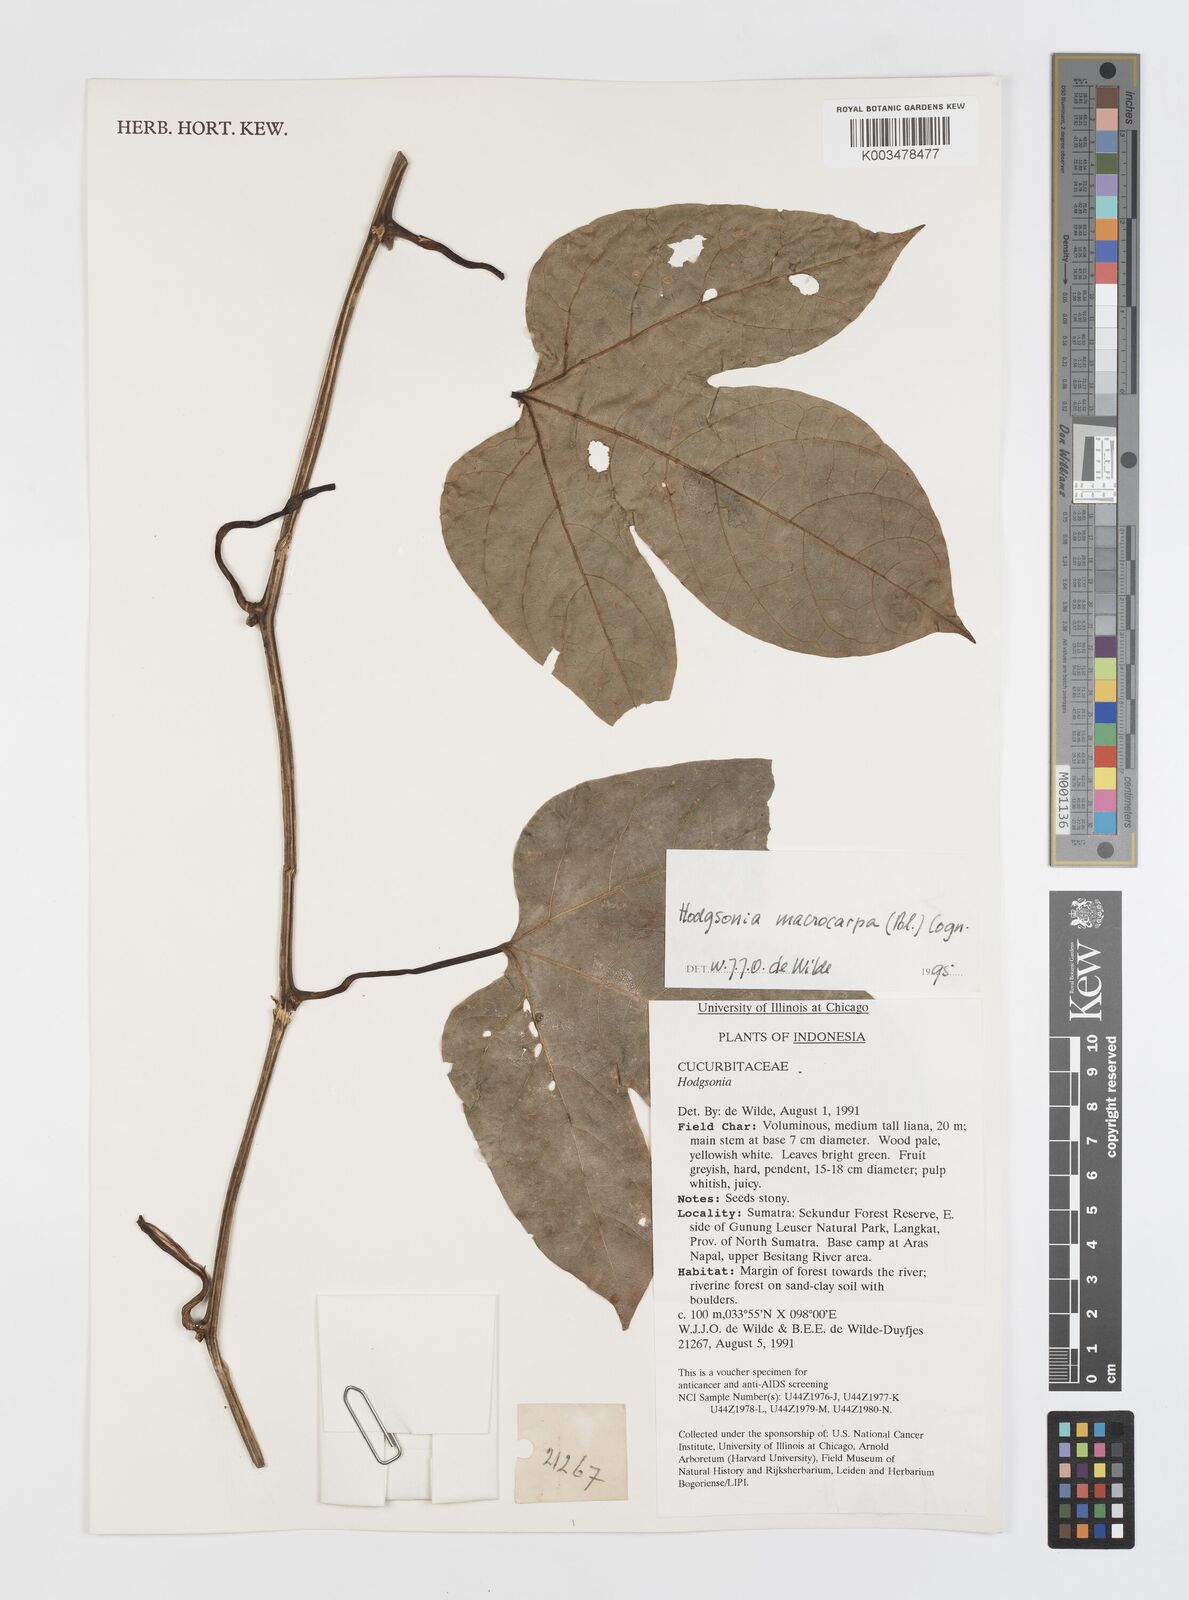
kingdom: Plantae
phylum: Tracheophyta
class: Magnoliopsida
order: Cucurbitales
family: Cucurbitaceae
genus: Hodgsonia
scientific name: Hodgsonia macrocarpa
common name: Chinese lardfruit
